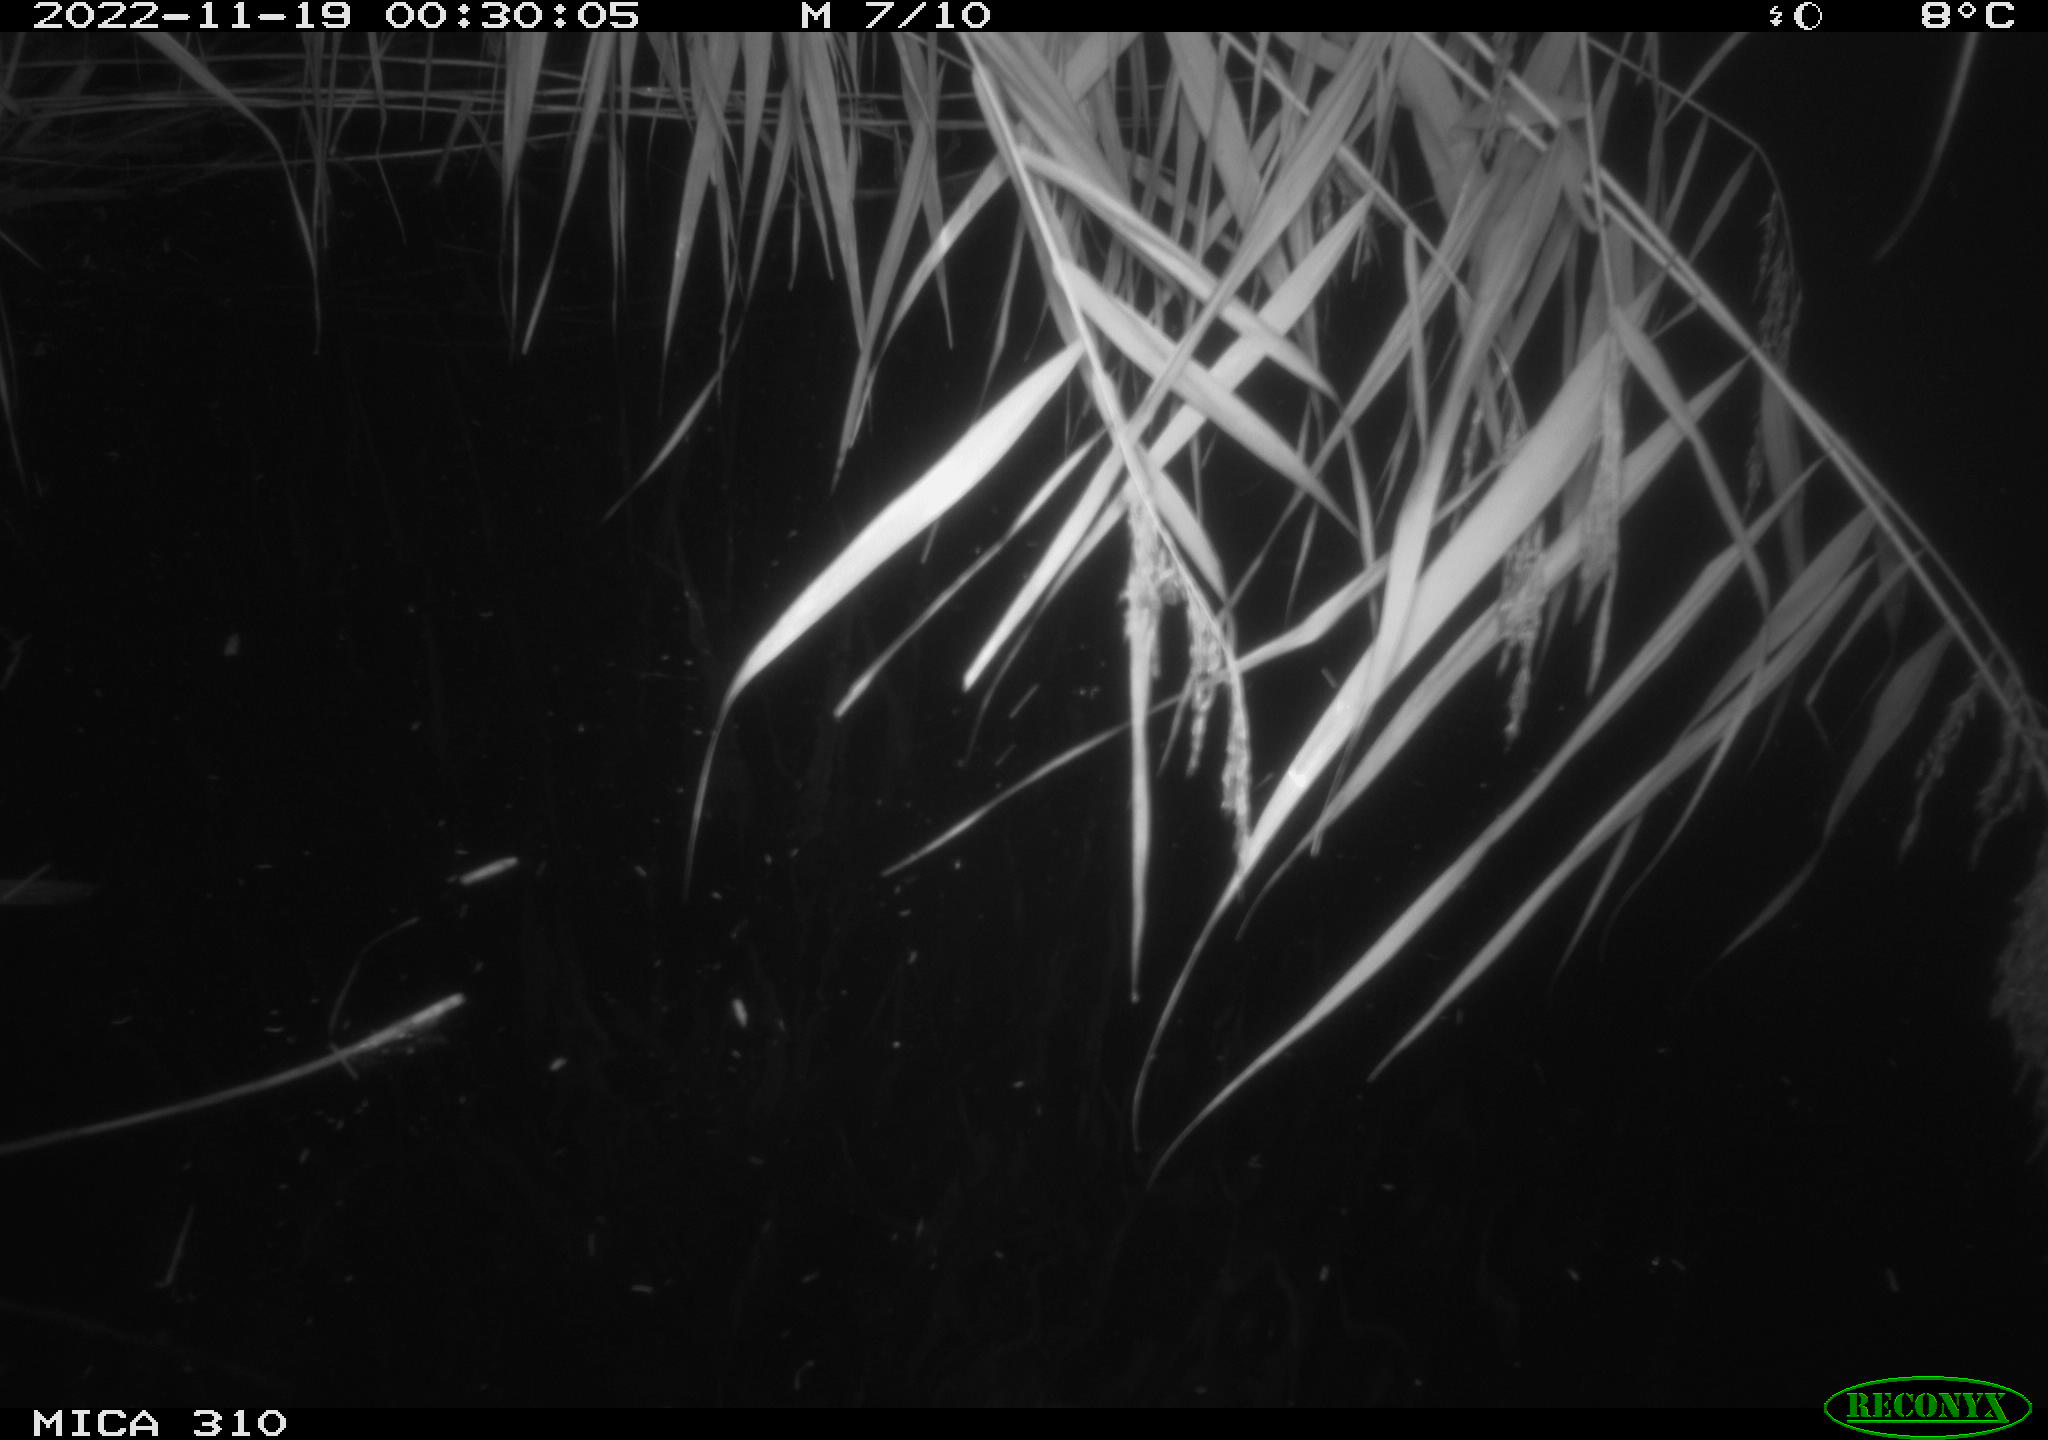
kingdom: Animalia
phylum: Chordata
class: Mammalia
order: Rodentia
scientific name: Rodentia
